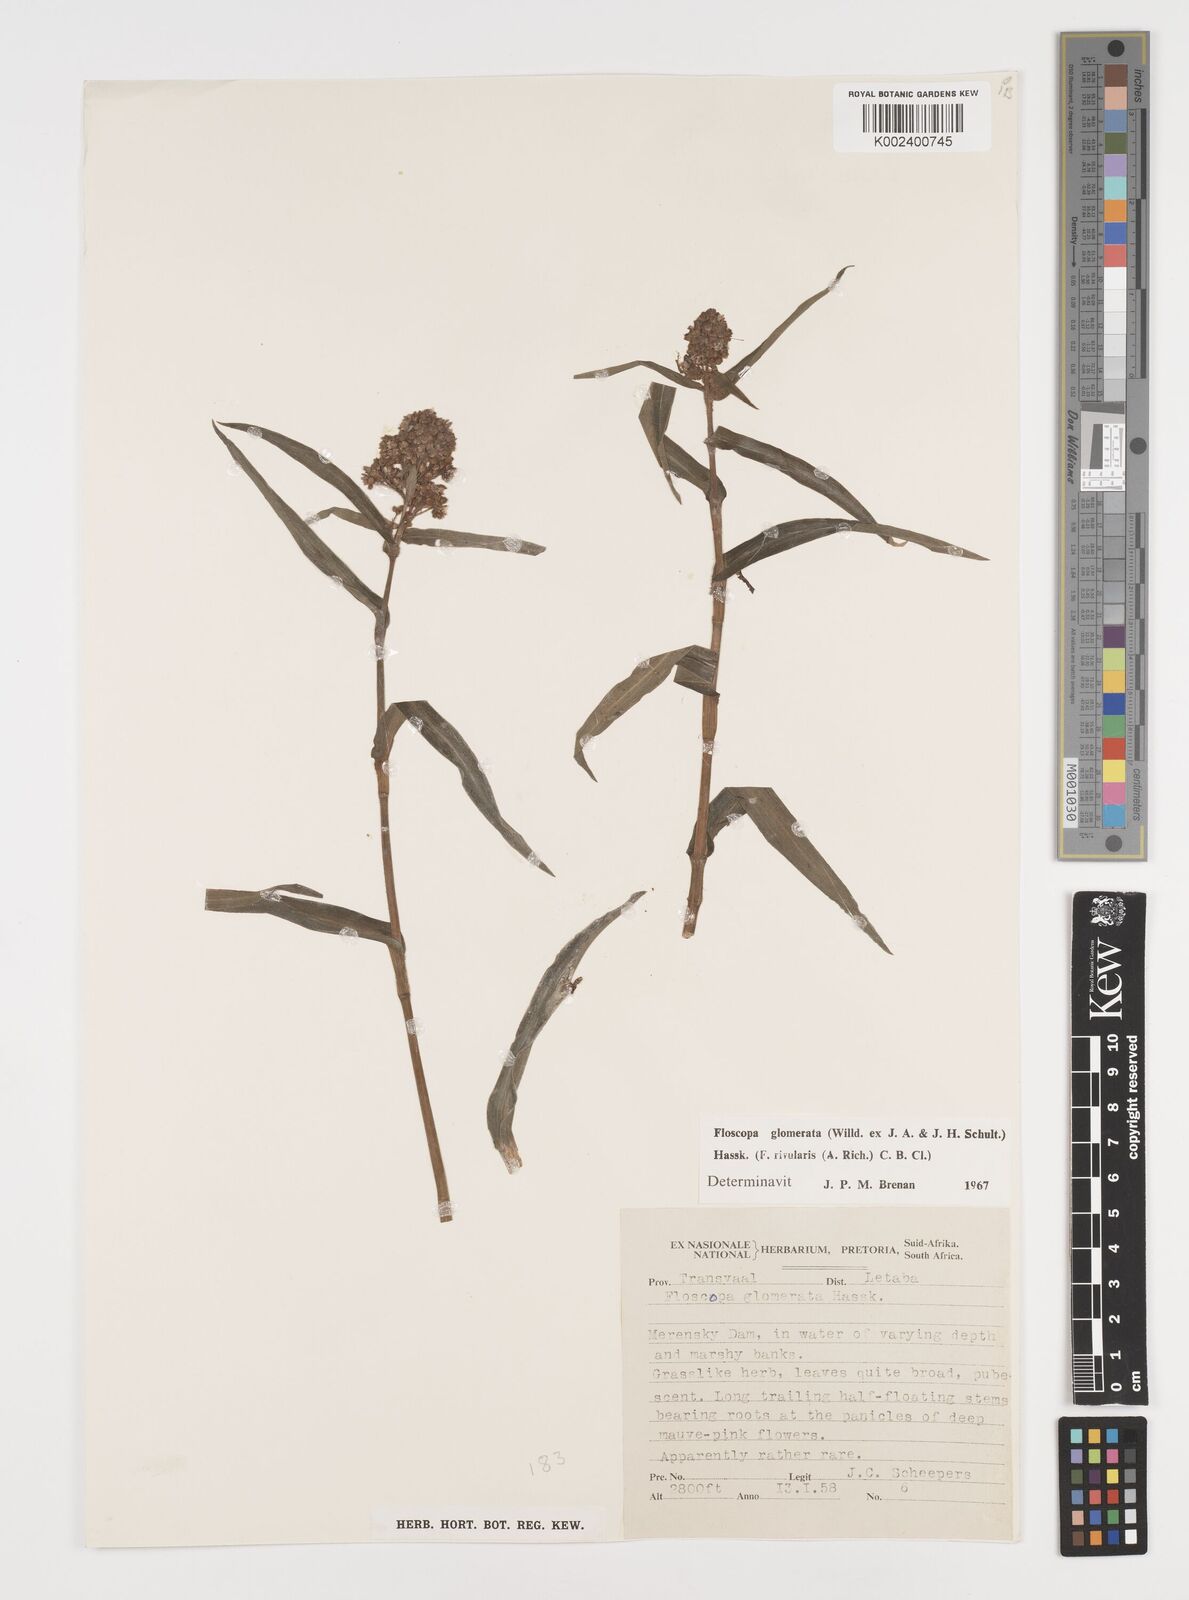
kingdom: Plantae
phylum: Tracheophyta
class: Liliopsida
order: Commelinales
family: Commelinaceae
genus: Floscopa
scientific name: Floscopa glomerata
